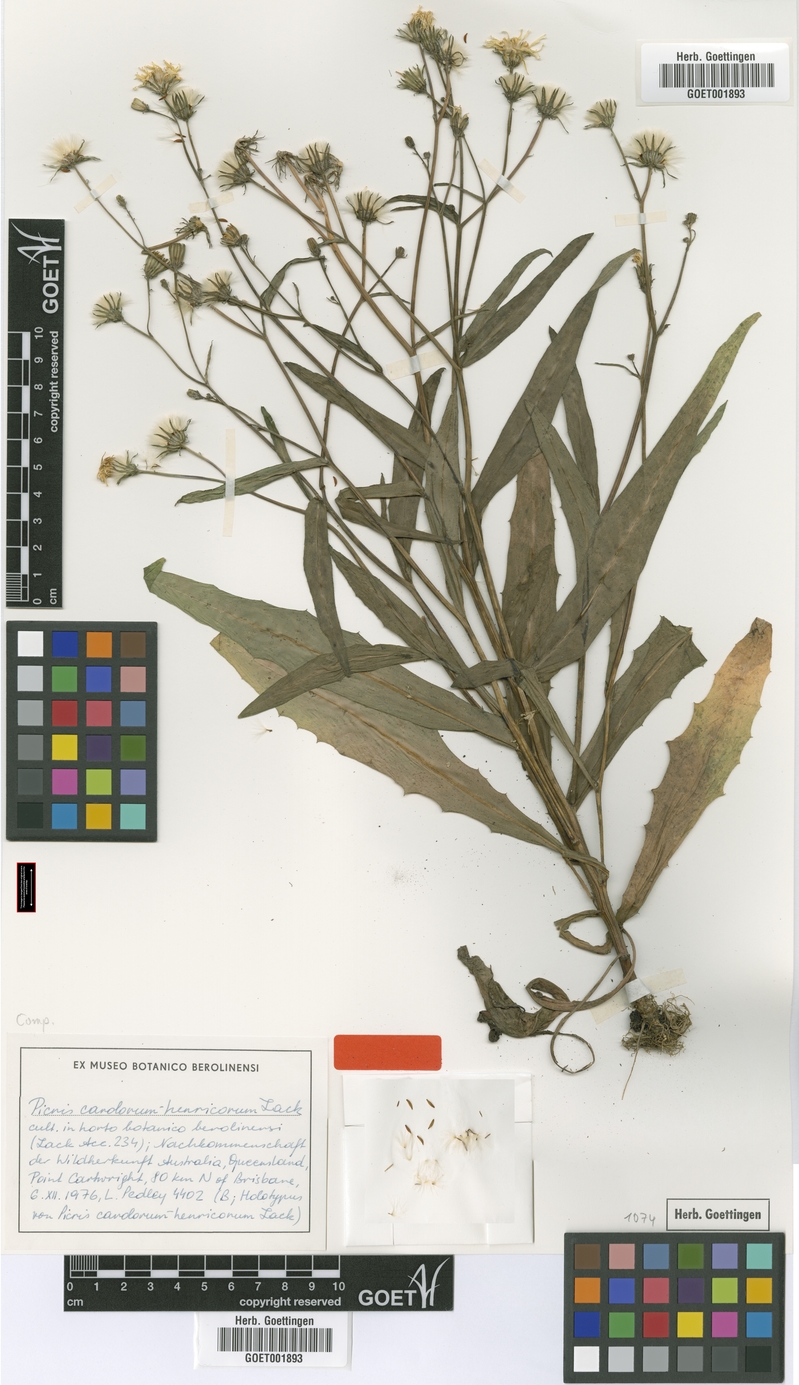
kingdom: Plantae
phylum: Tracheophyta
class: Magnoliopsida
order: Asterales
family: Asteraceae
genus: Picris
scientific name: Picris angustifolia
